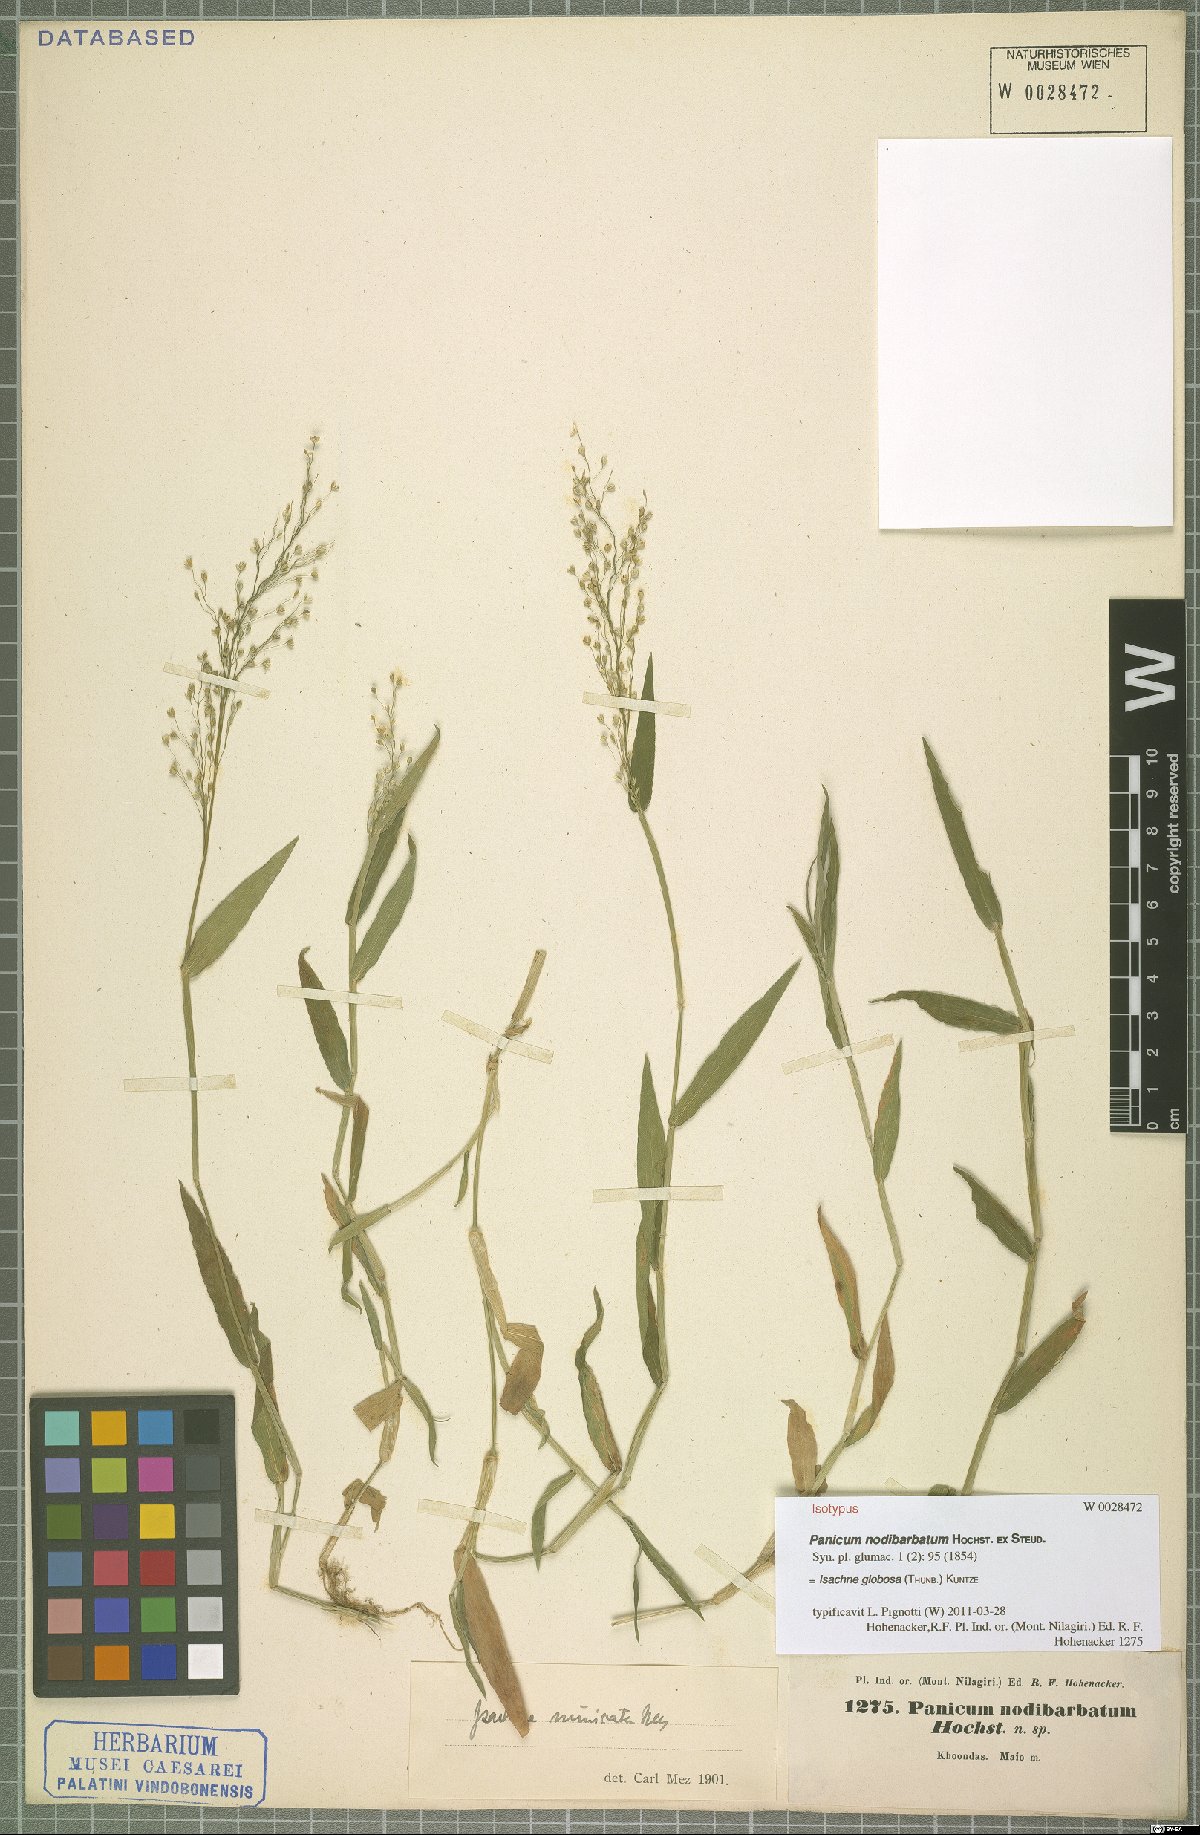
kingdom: Plantae
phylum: Tracheophyta
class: Liliopsida
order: Poales
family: Poaceae
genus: Isachne
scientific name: Isachne globosa
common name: Swamp millet
